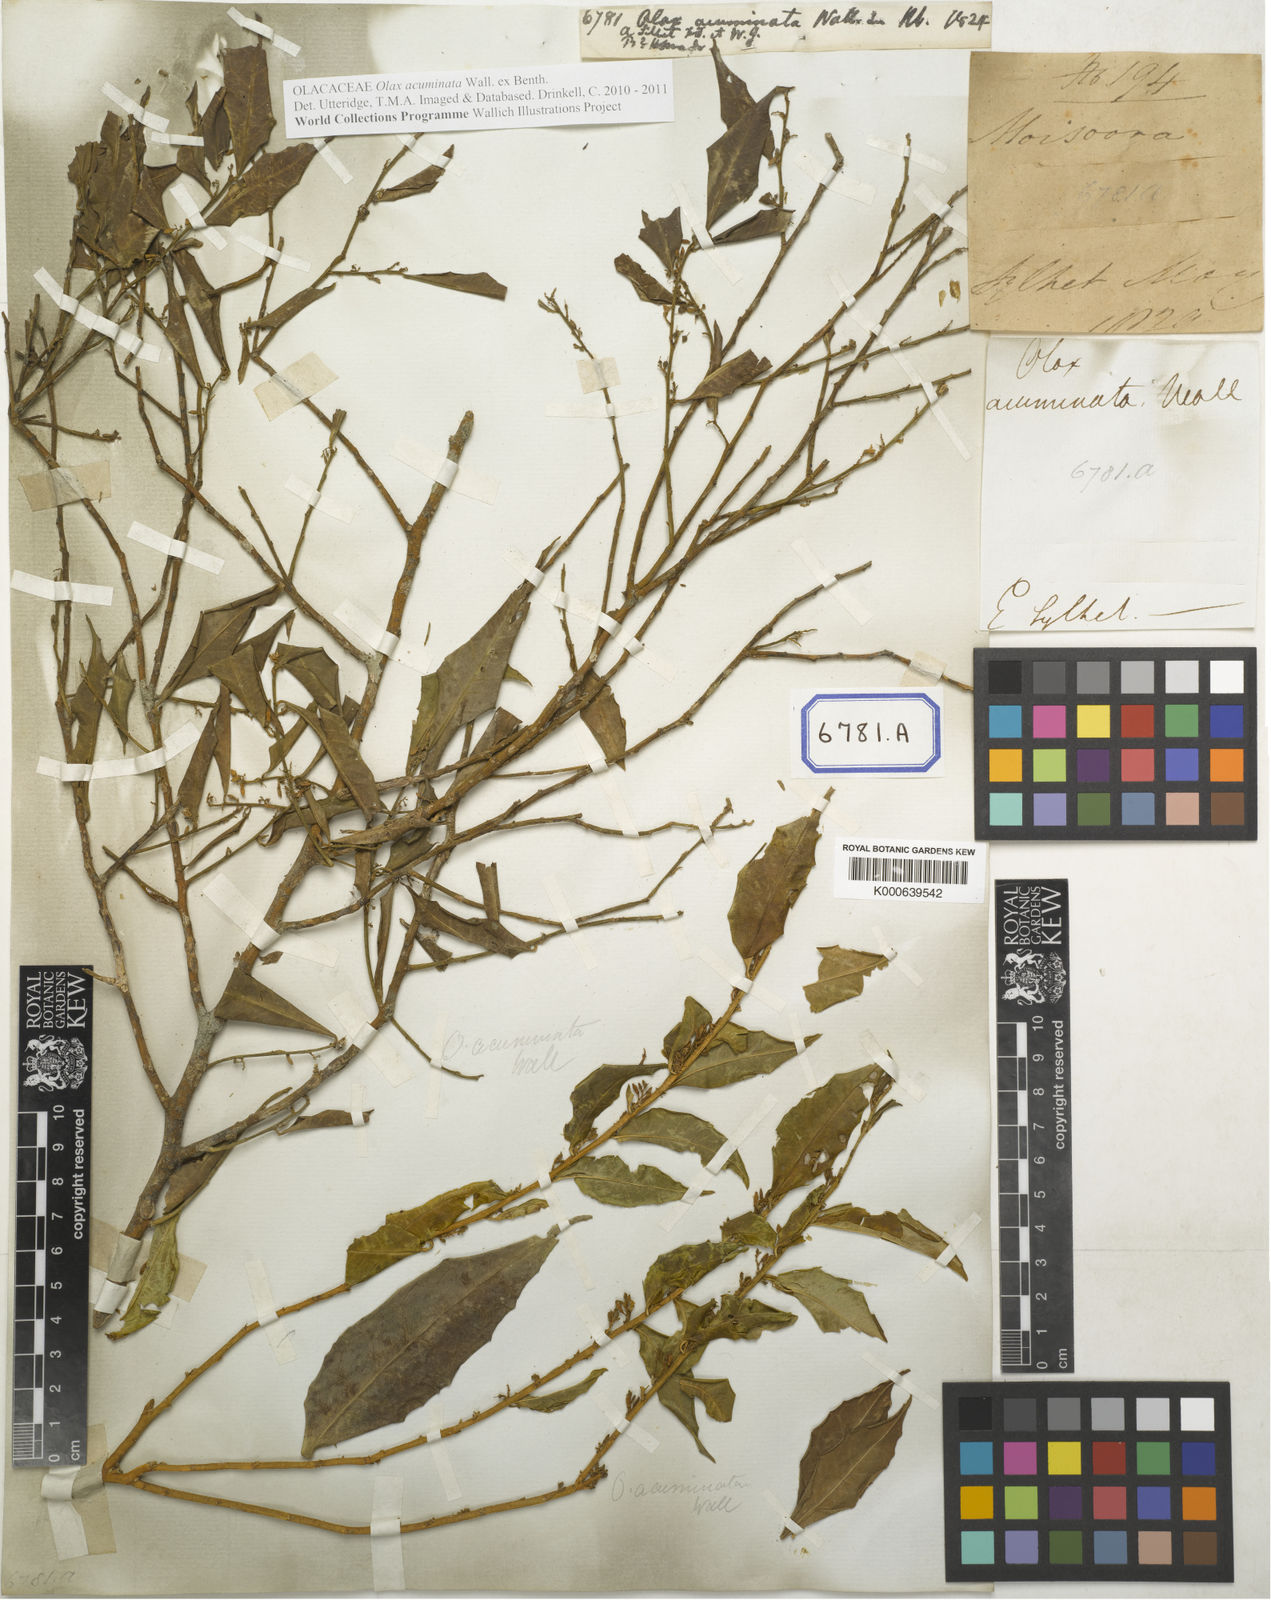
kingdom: Plantae
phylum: Tracheophyta
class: Magnoliopsida
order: Santalales
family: Olacaceae
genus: Olax
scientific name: Olax acuminata
